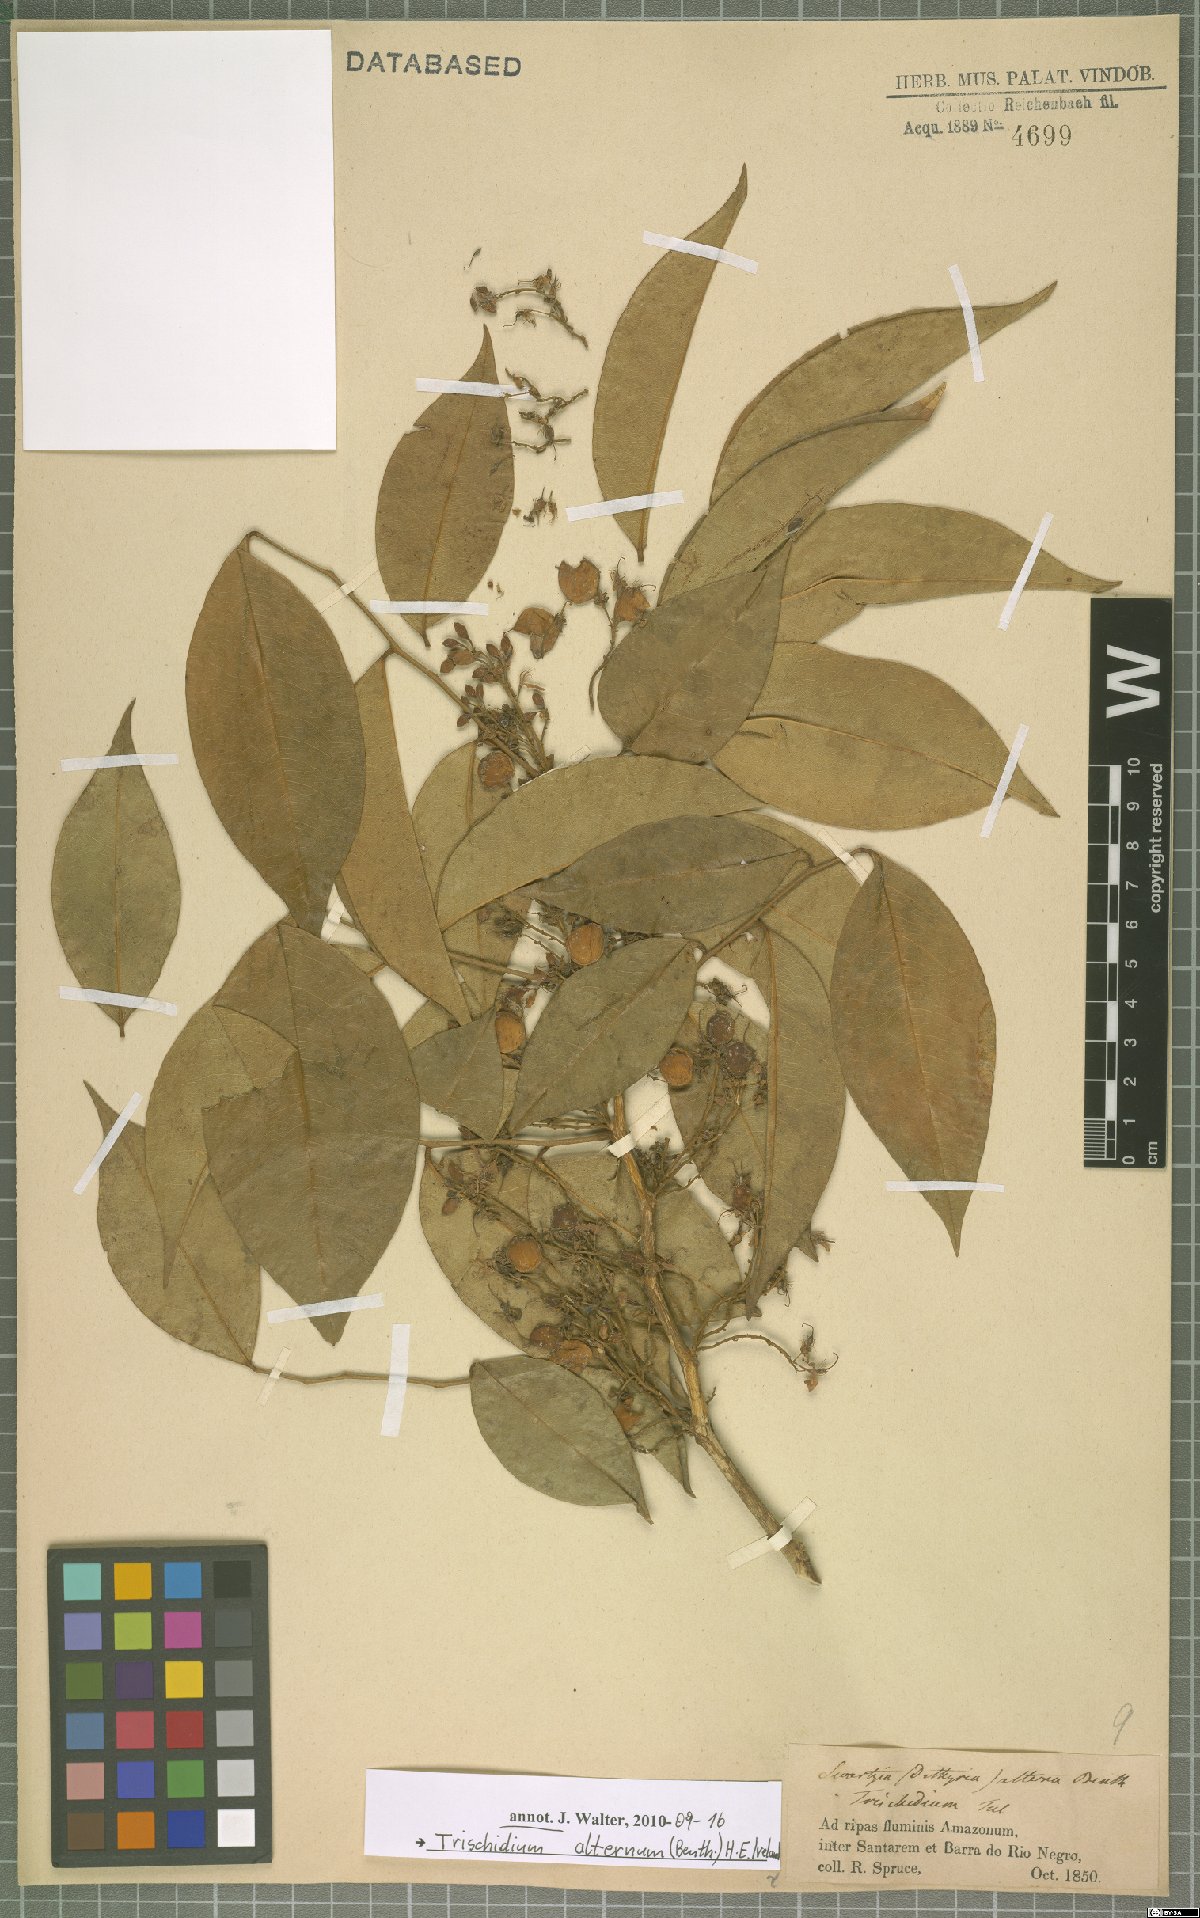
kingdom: Plantae
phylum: Tracheophyta
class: Magnoliopsida
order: Fabales
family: Fabaceae
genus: Trischidium
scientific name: Trischidium alternum
